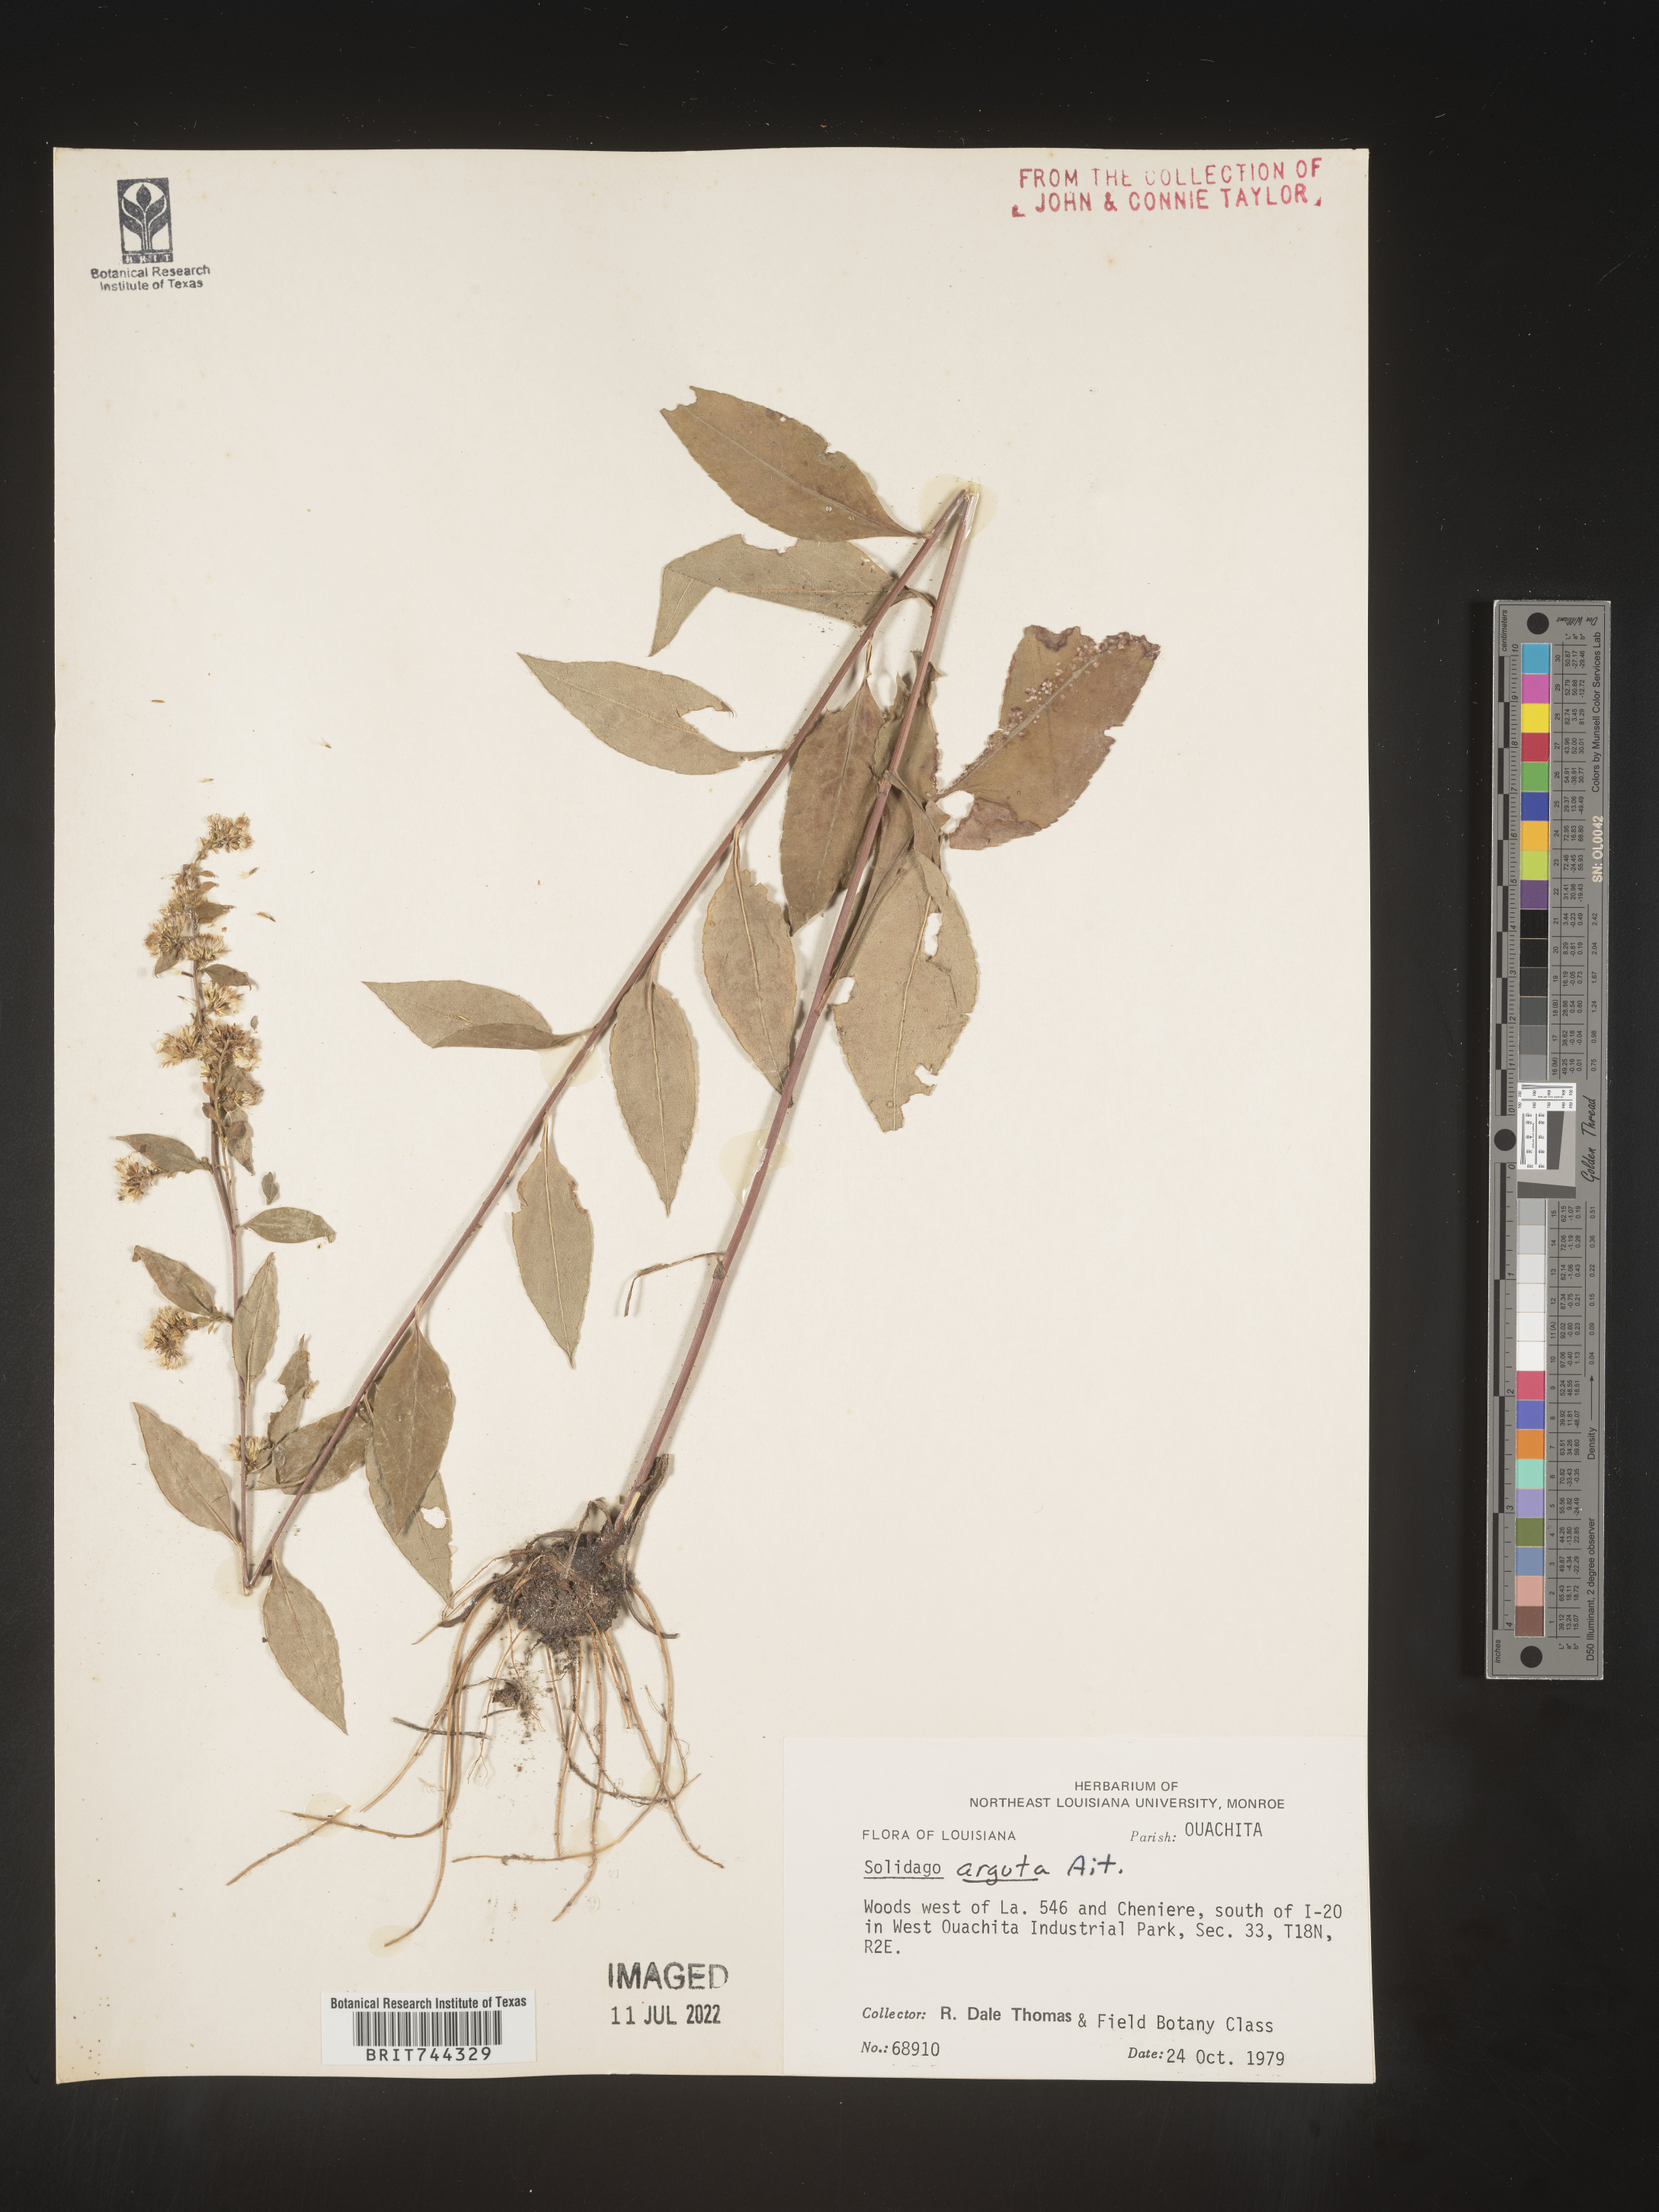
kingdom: Plantae
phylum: Tracheophyta
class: Magnoliopsida
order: Asterales
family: Asteraceae
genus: Solidago
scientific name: Solidago arguta
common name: Atlantic goldenrod
